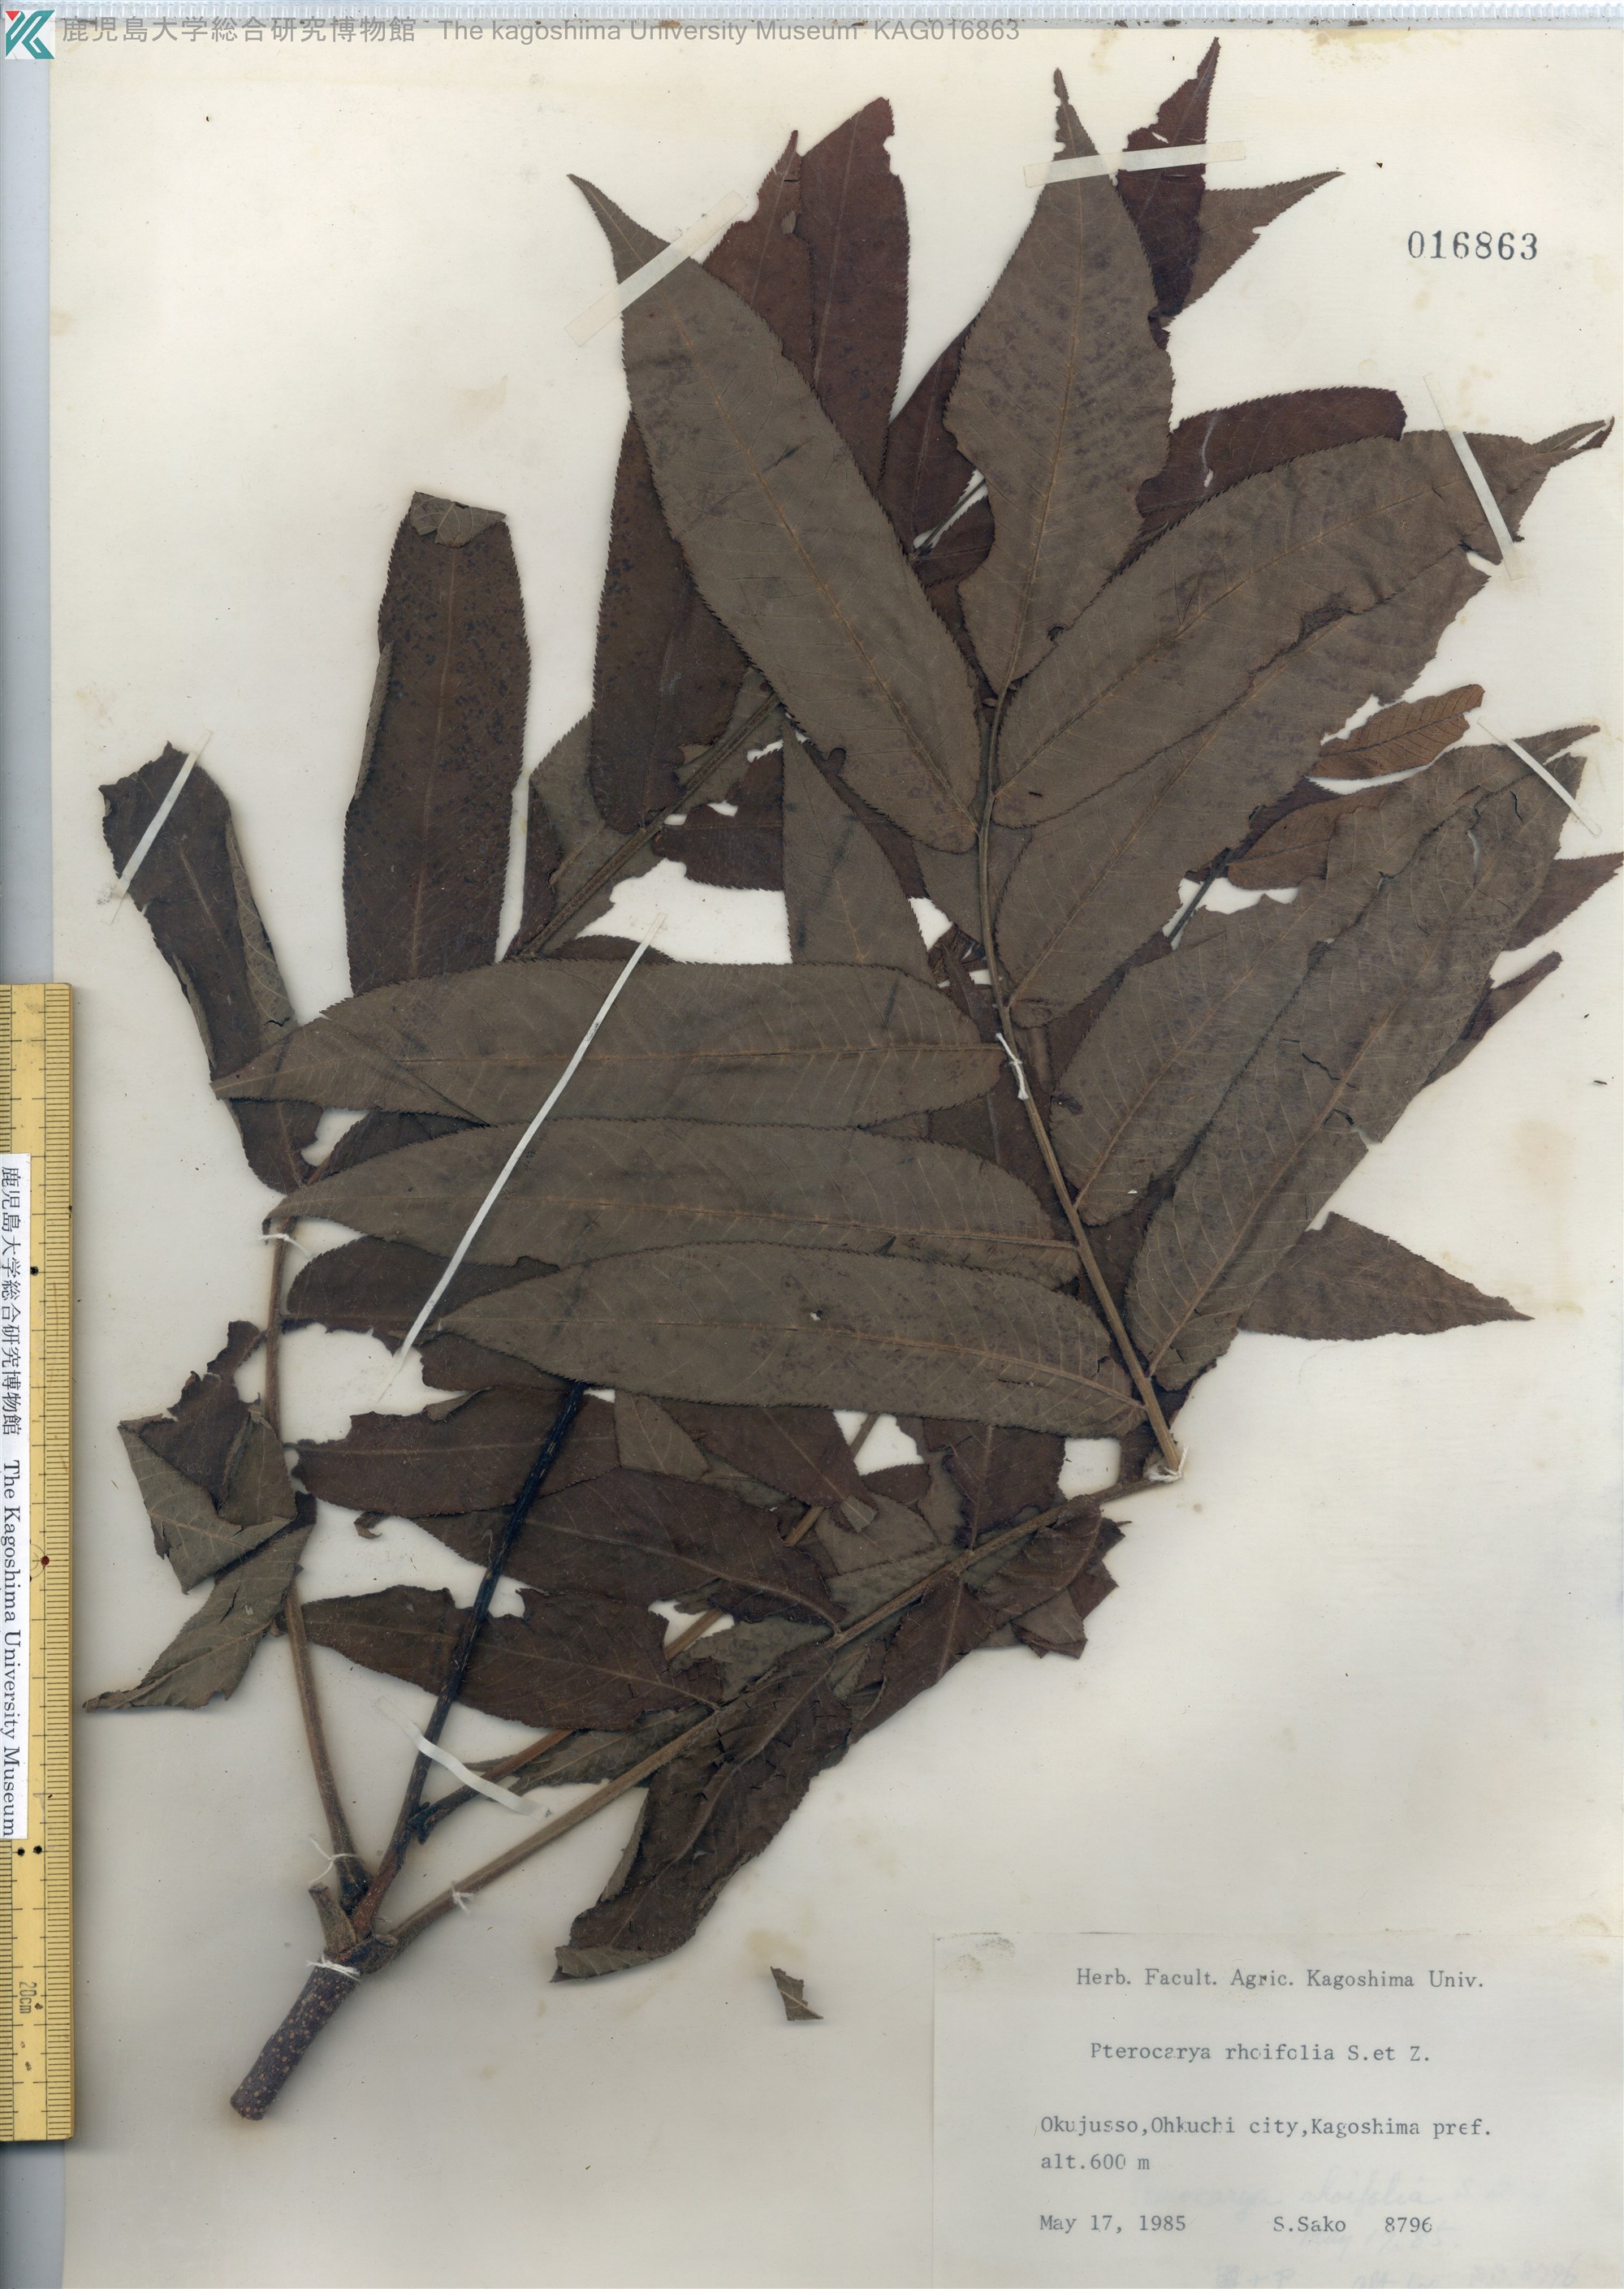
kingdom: Plantae
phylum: Tracheophyta
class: Magnoliopsida
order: Fagales
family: Juglandaceae
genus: Pterocarya
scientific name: Pterocarya rhoifolia
